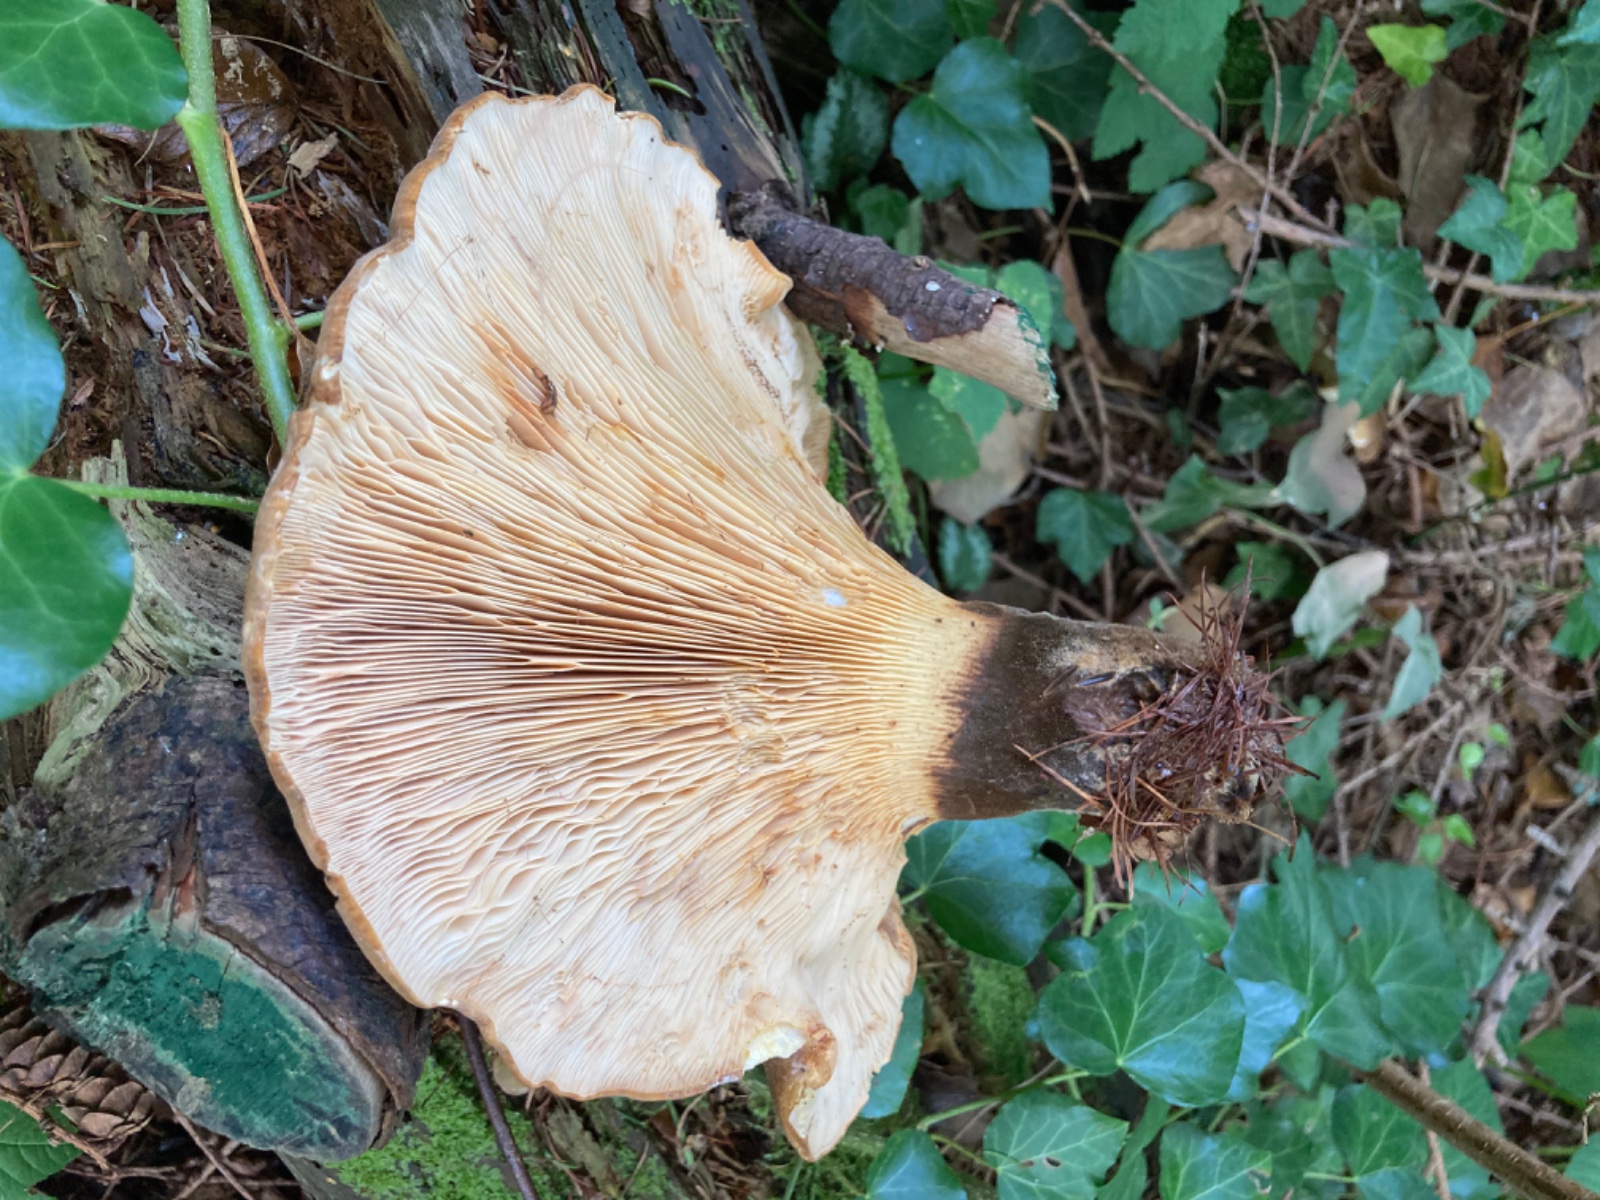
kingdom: Fungi
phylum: Basidiomycota
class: Agaricomycetes
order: Boletales
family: Tapinellaceae
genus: Tapinella
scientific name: Tapinella atrotomentosa
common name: sortfiltet viftesvamp
